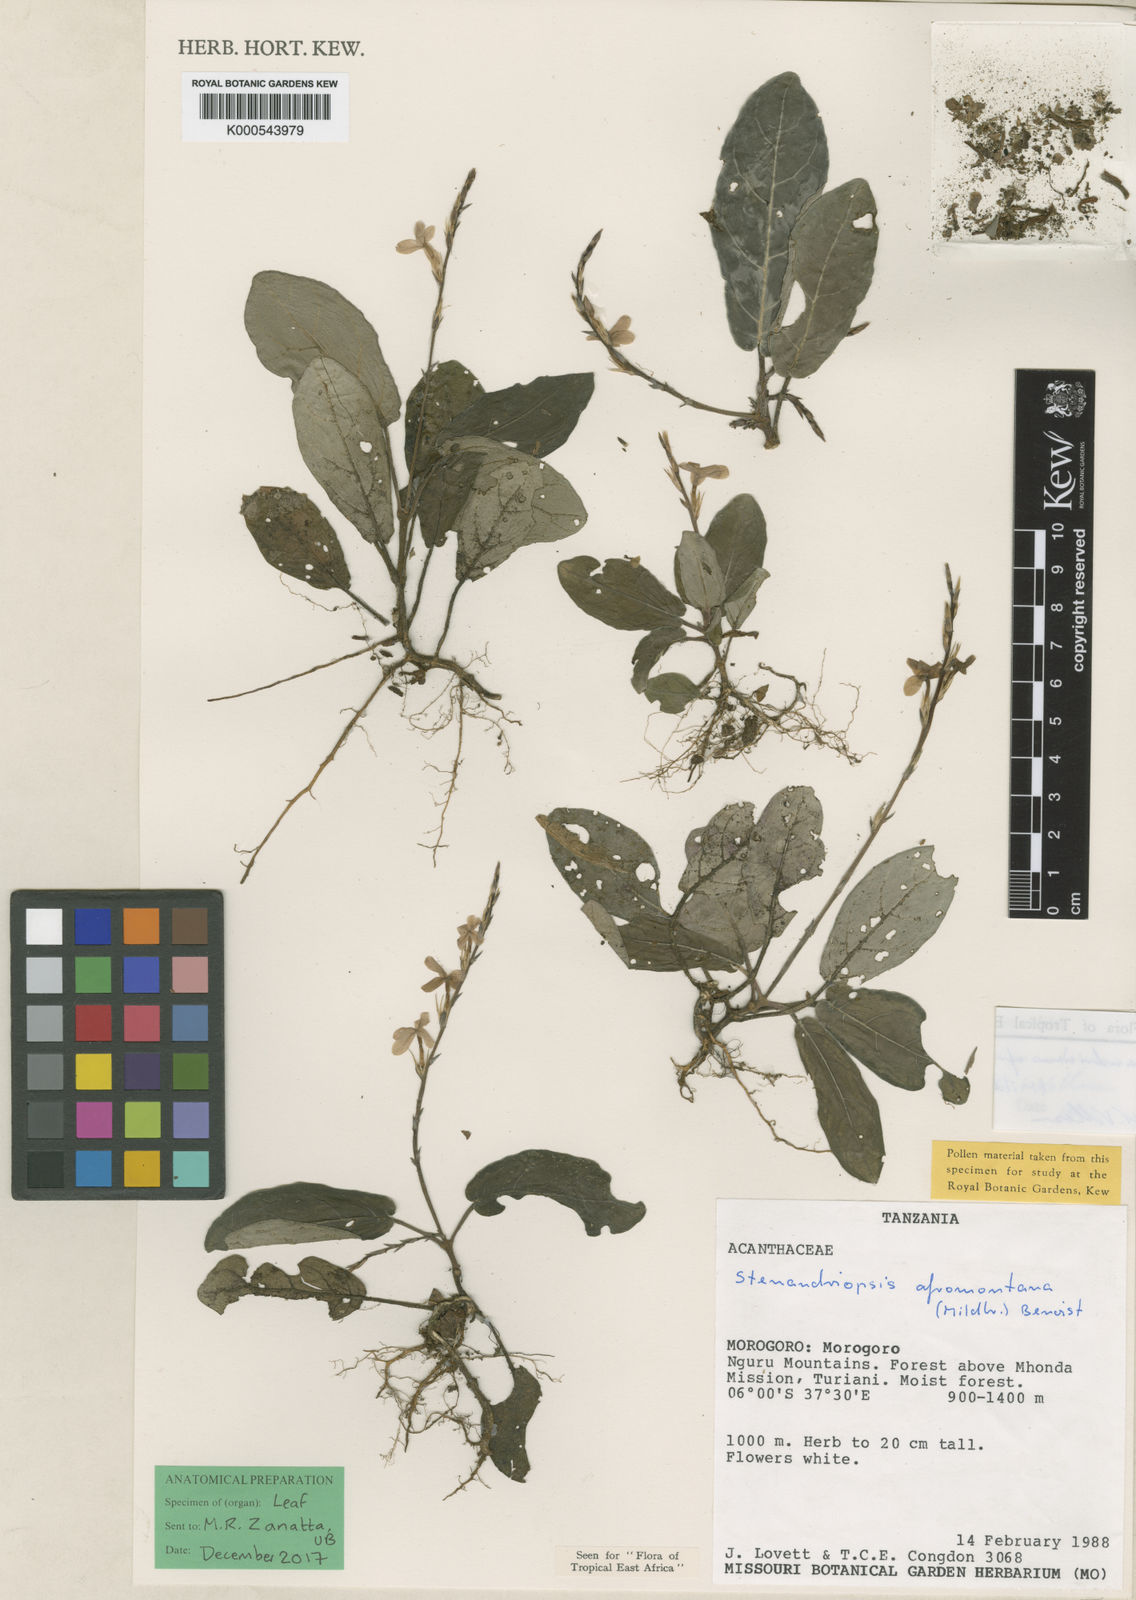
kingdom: Plantae
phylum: Tracheophyta
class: Magnoliopsida
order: Lamiales
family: Acanthaceae
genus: Stenandriopsis
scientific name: Stenandriopsis afromontana
